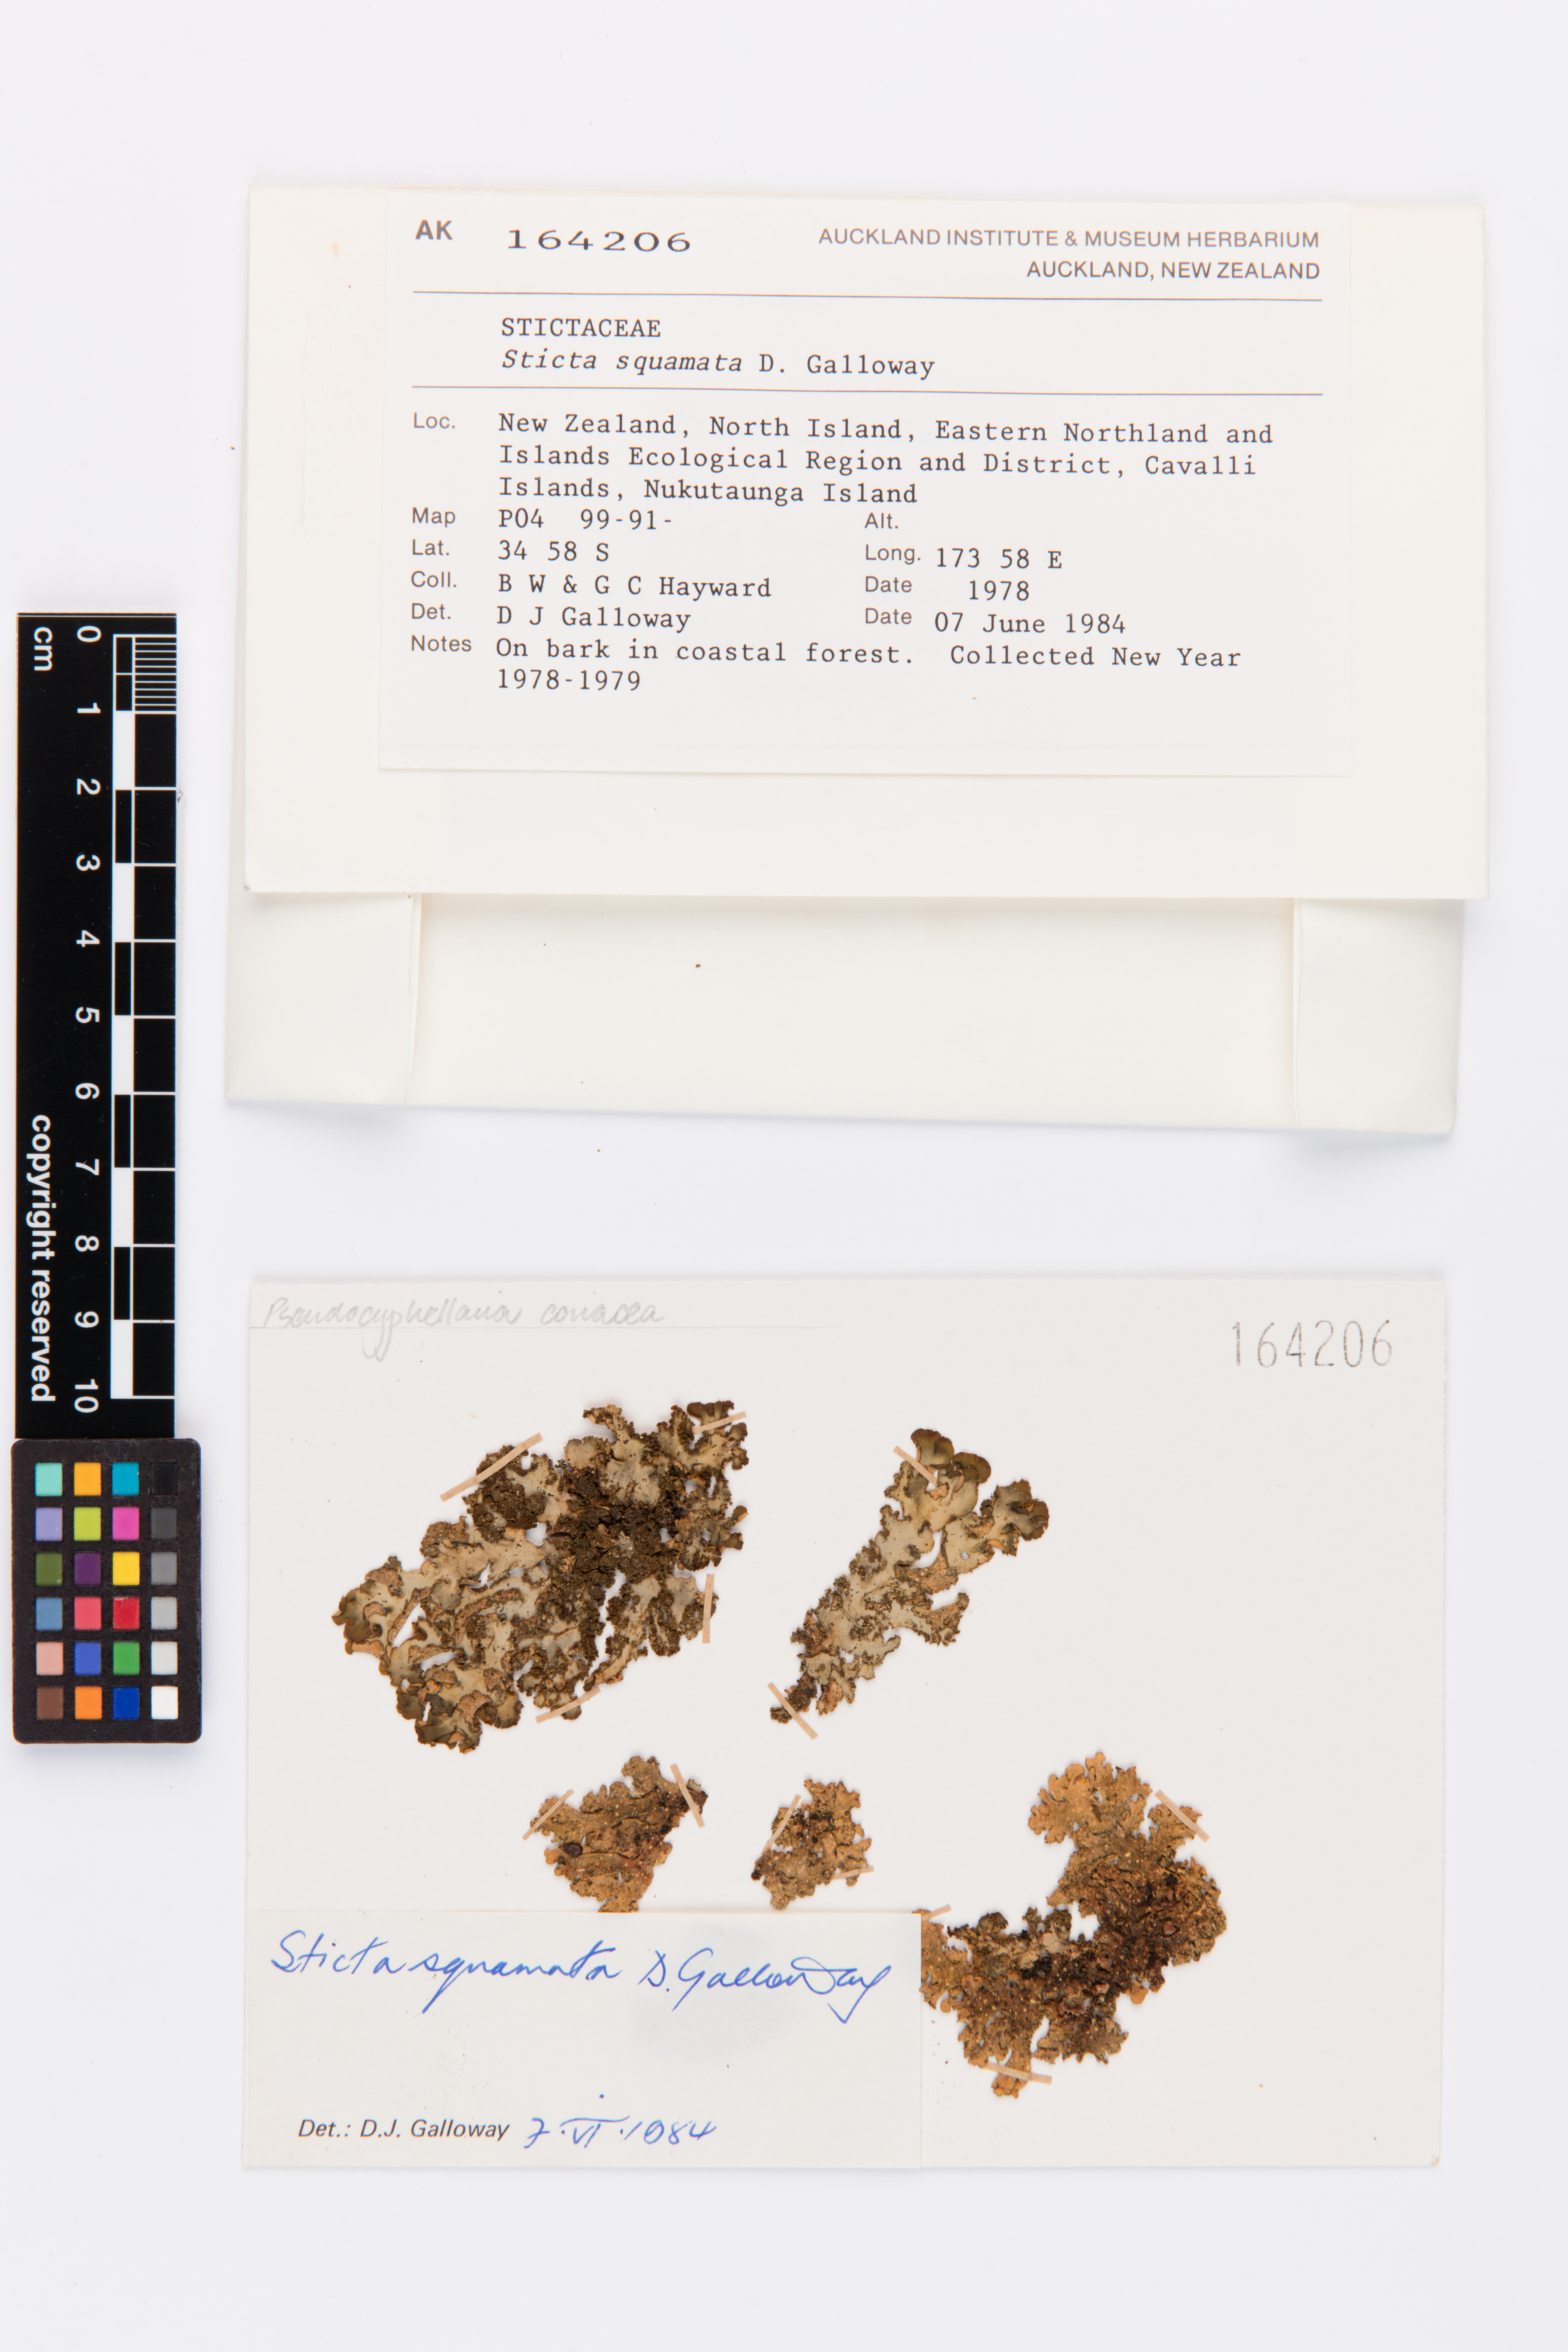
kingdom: Fungi
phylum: Ascomycota
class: Lecanoromycetes
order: Peltigerales
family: Lobariaceae
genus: Sticta
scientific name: Sticta squamata
